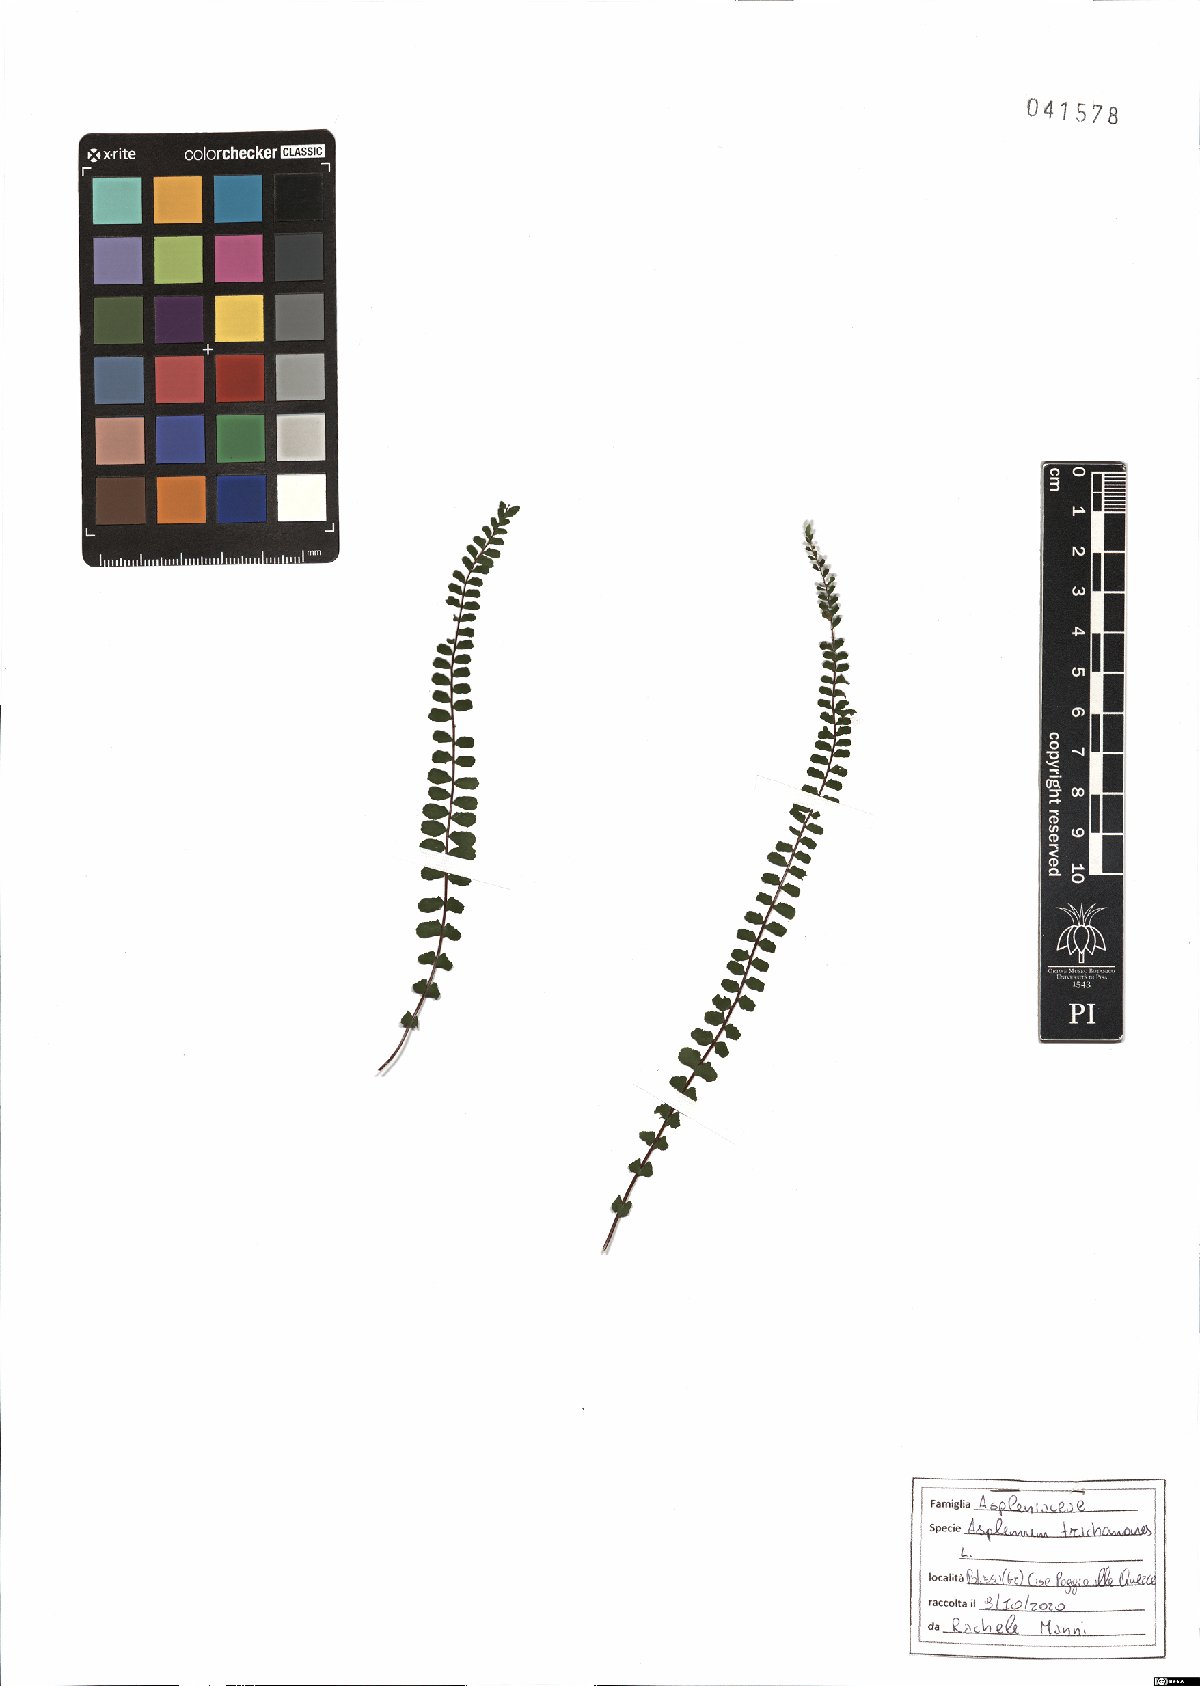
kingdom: Plantae
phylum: Tracheophyta
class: Polypodiopsida
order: Polypodiales
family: Aspleniaceae
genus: Asplenium
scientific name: Asplenium trichomanes
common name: Maidenhair spleenwort
